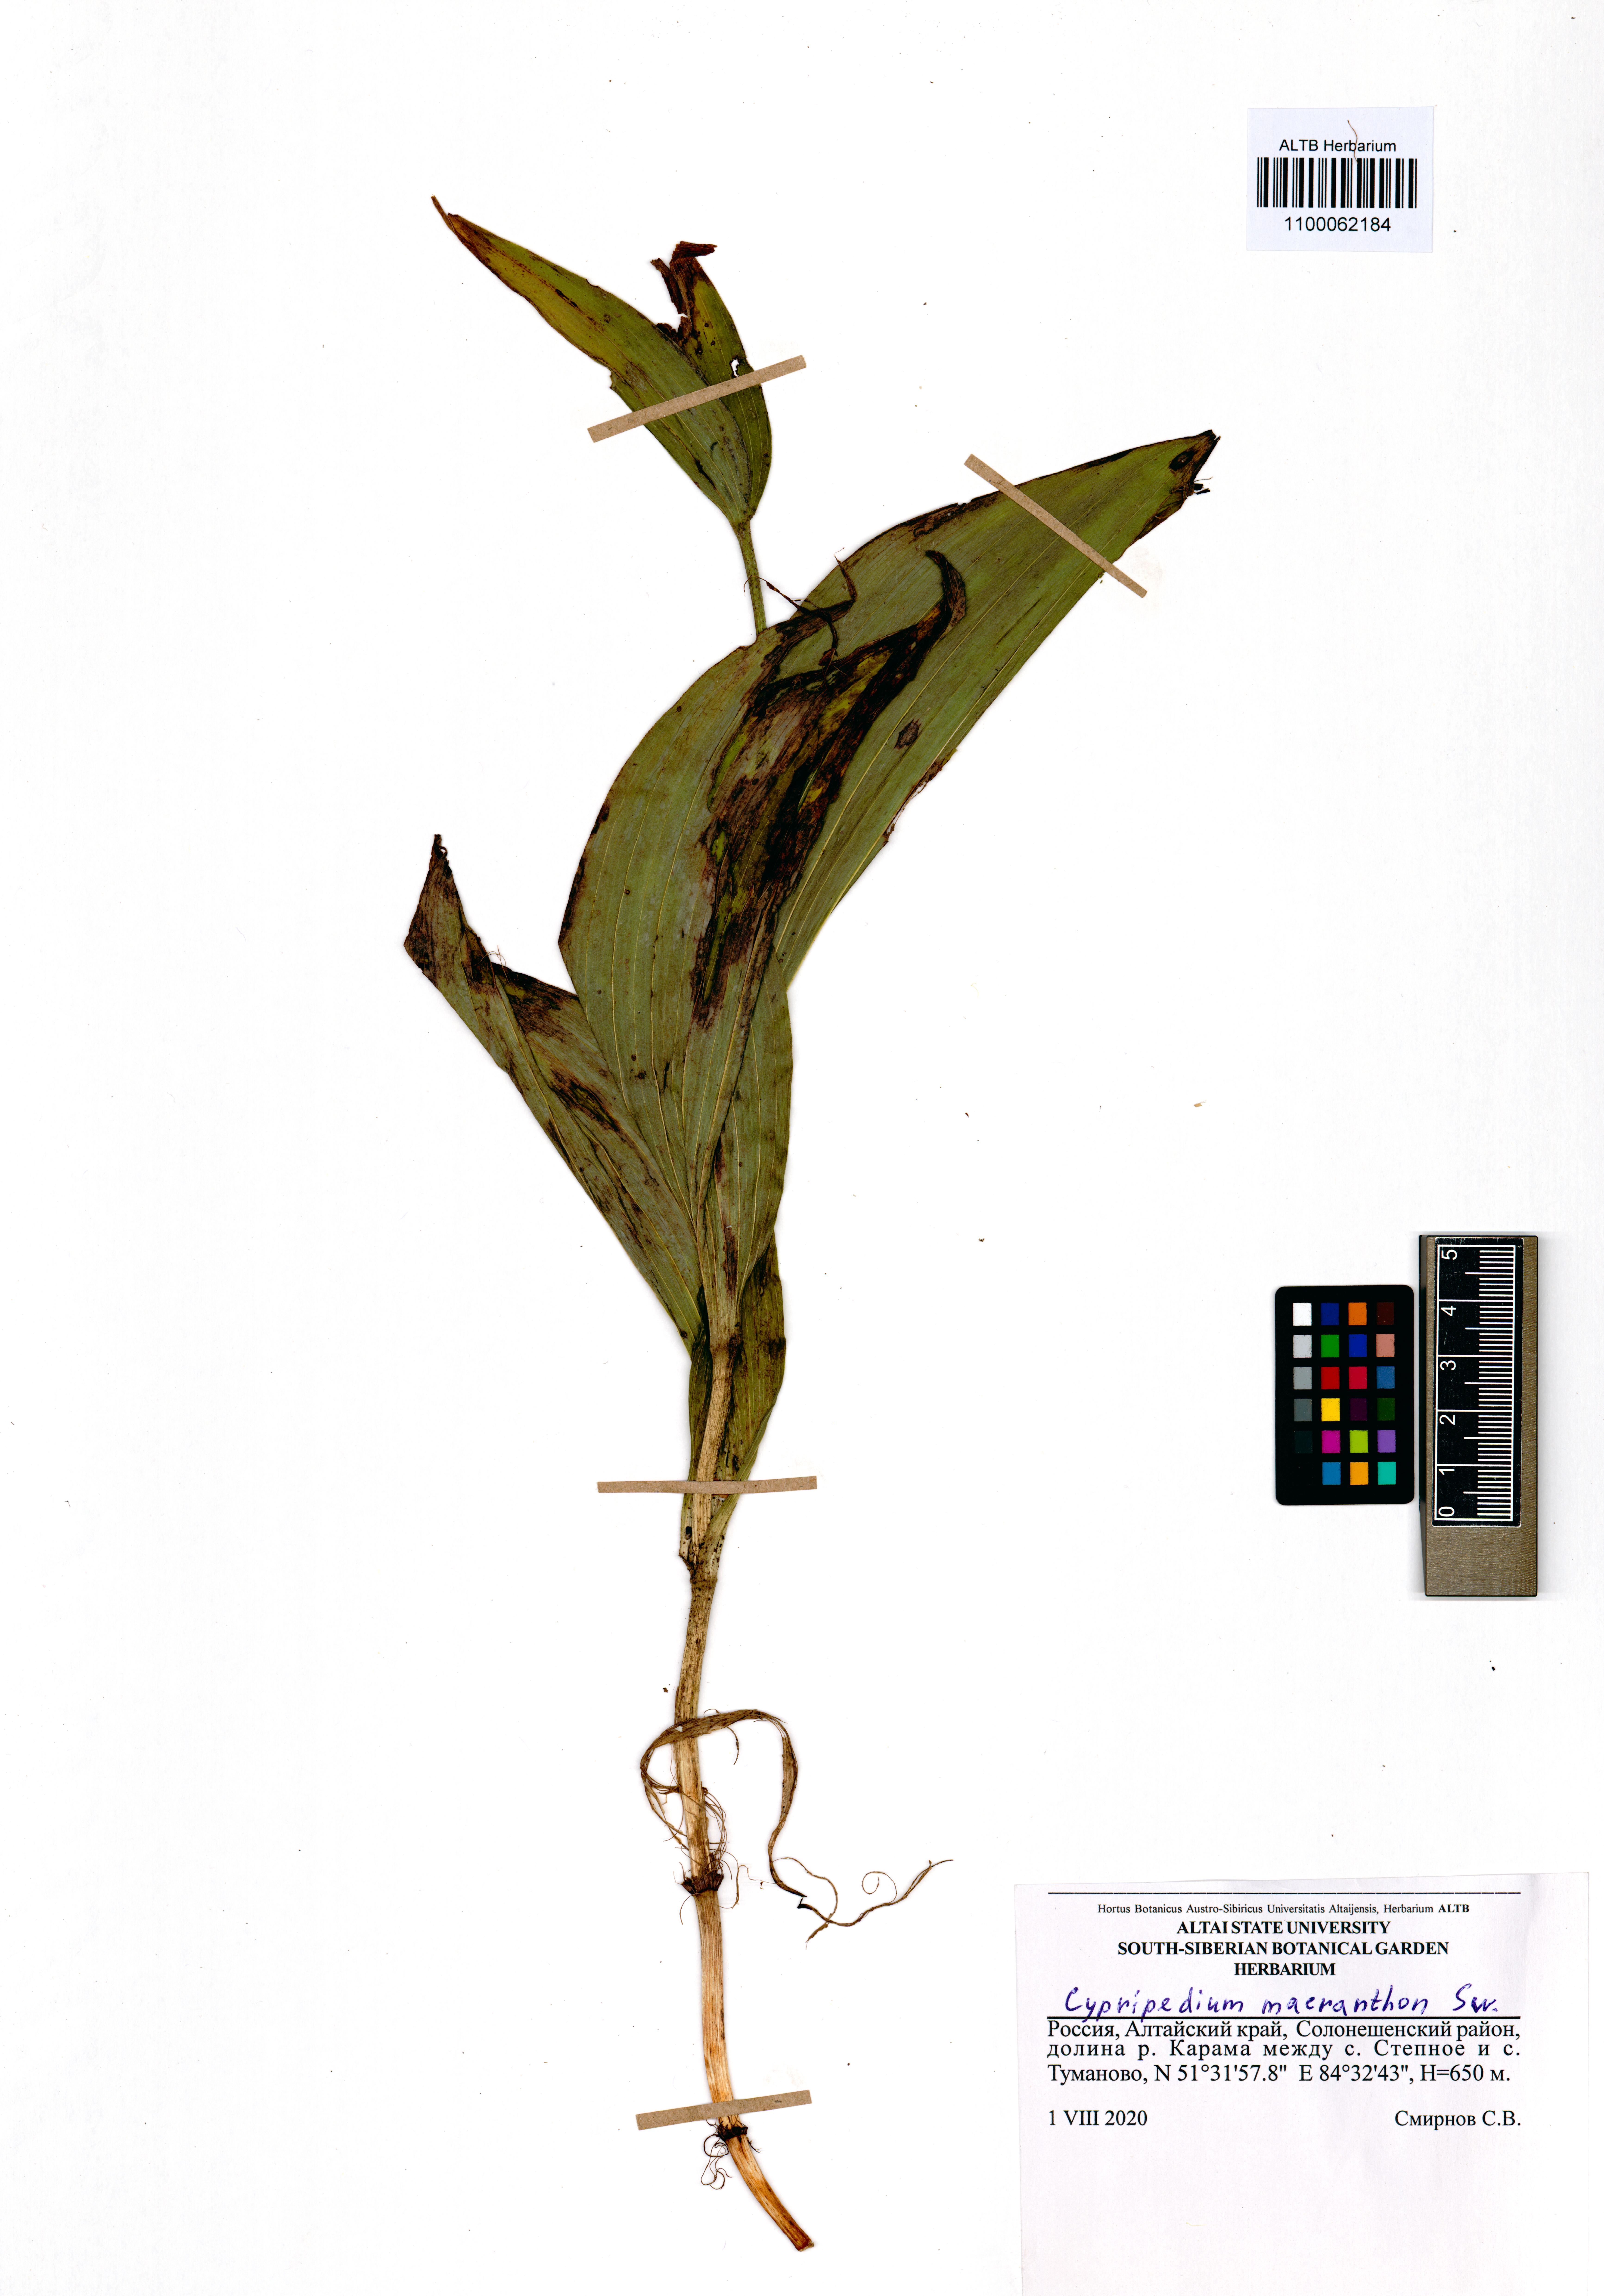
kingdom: Plantae
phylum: Tracheophyta
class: Liliopsida
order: Asparagales
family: Orchidaceae
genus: Cypripedium
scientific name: Cypripedium macranthon
